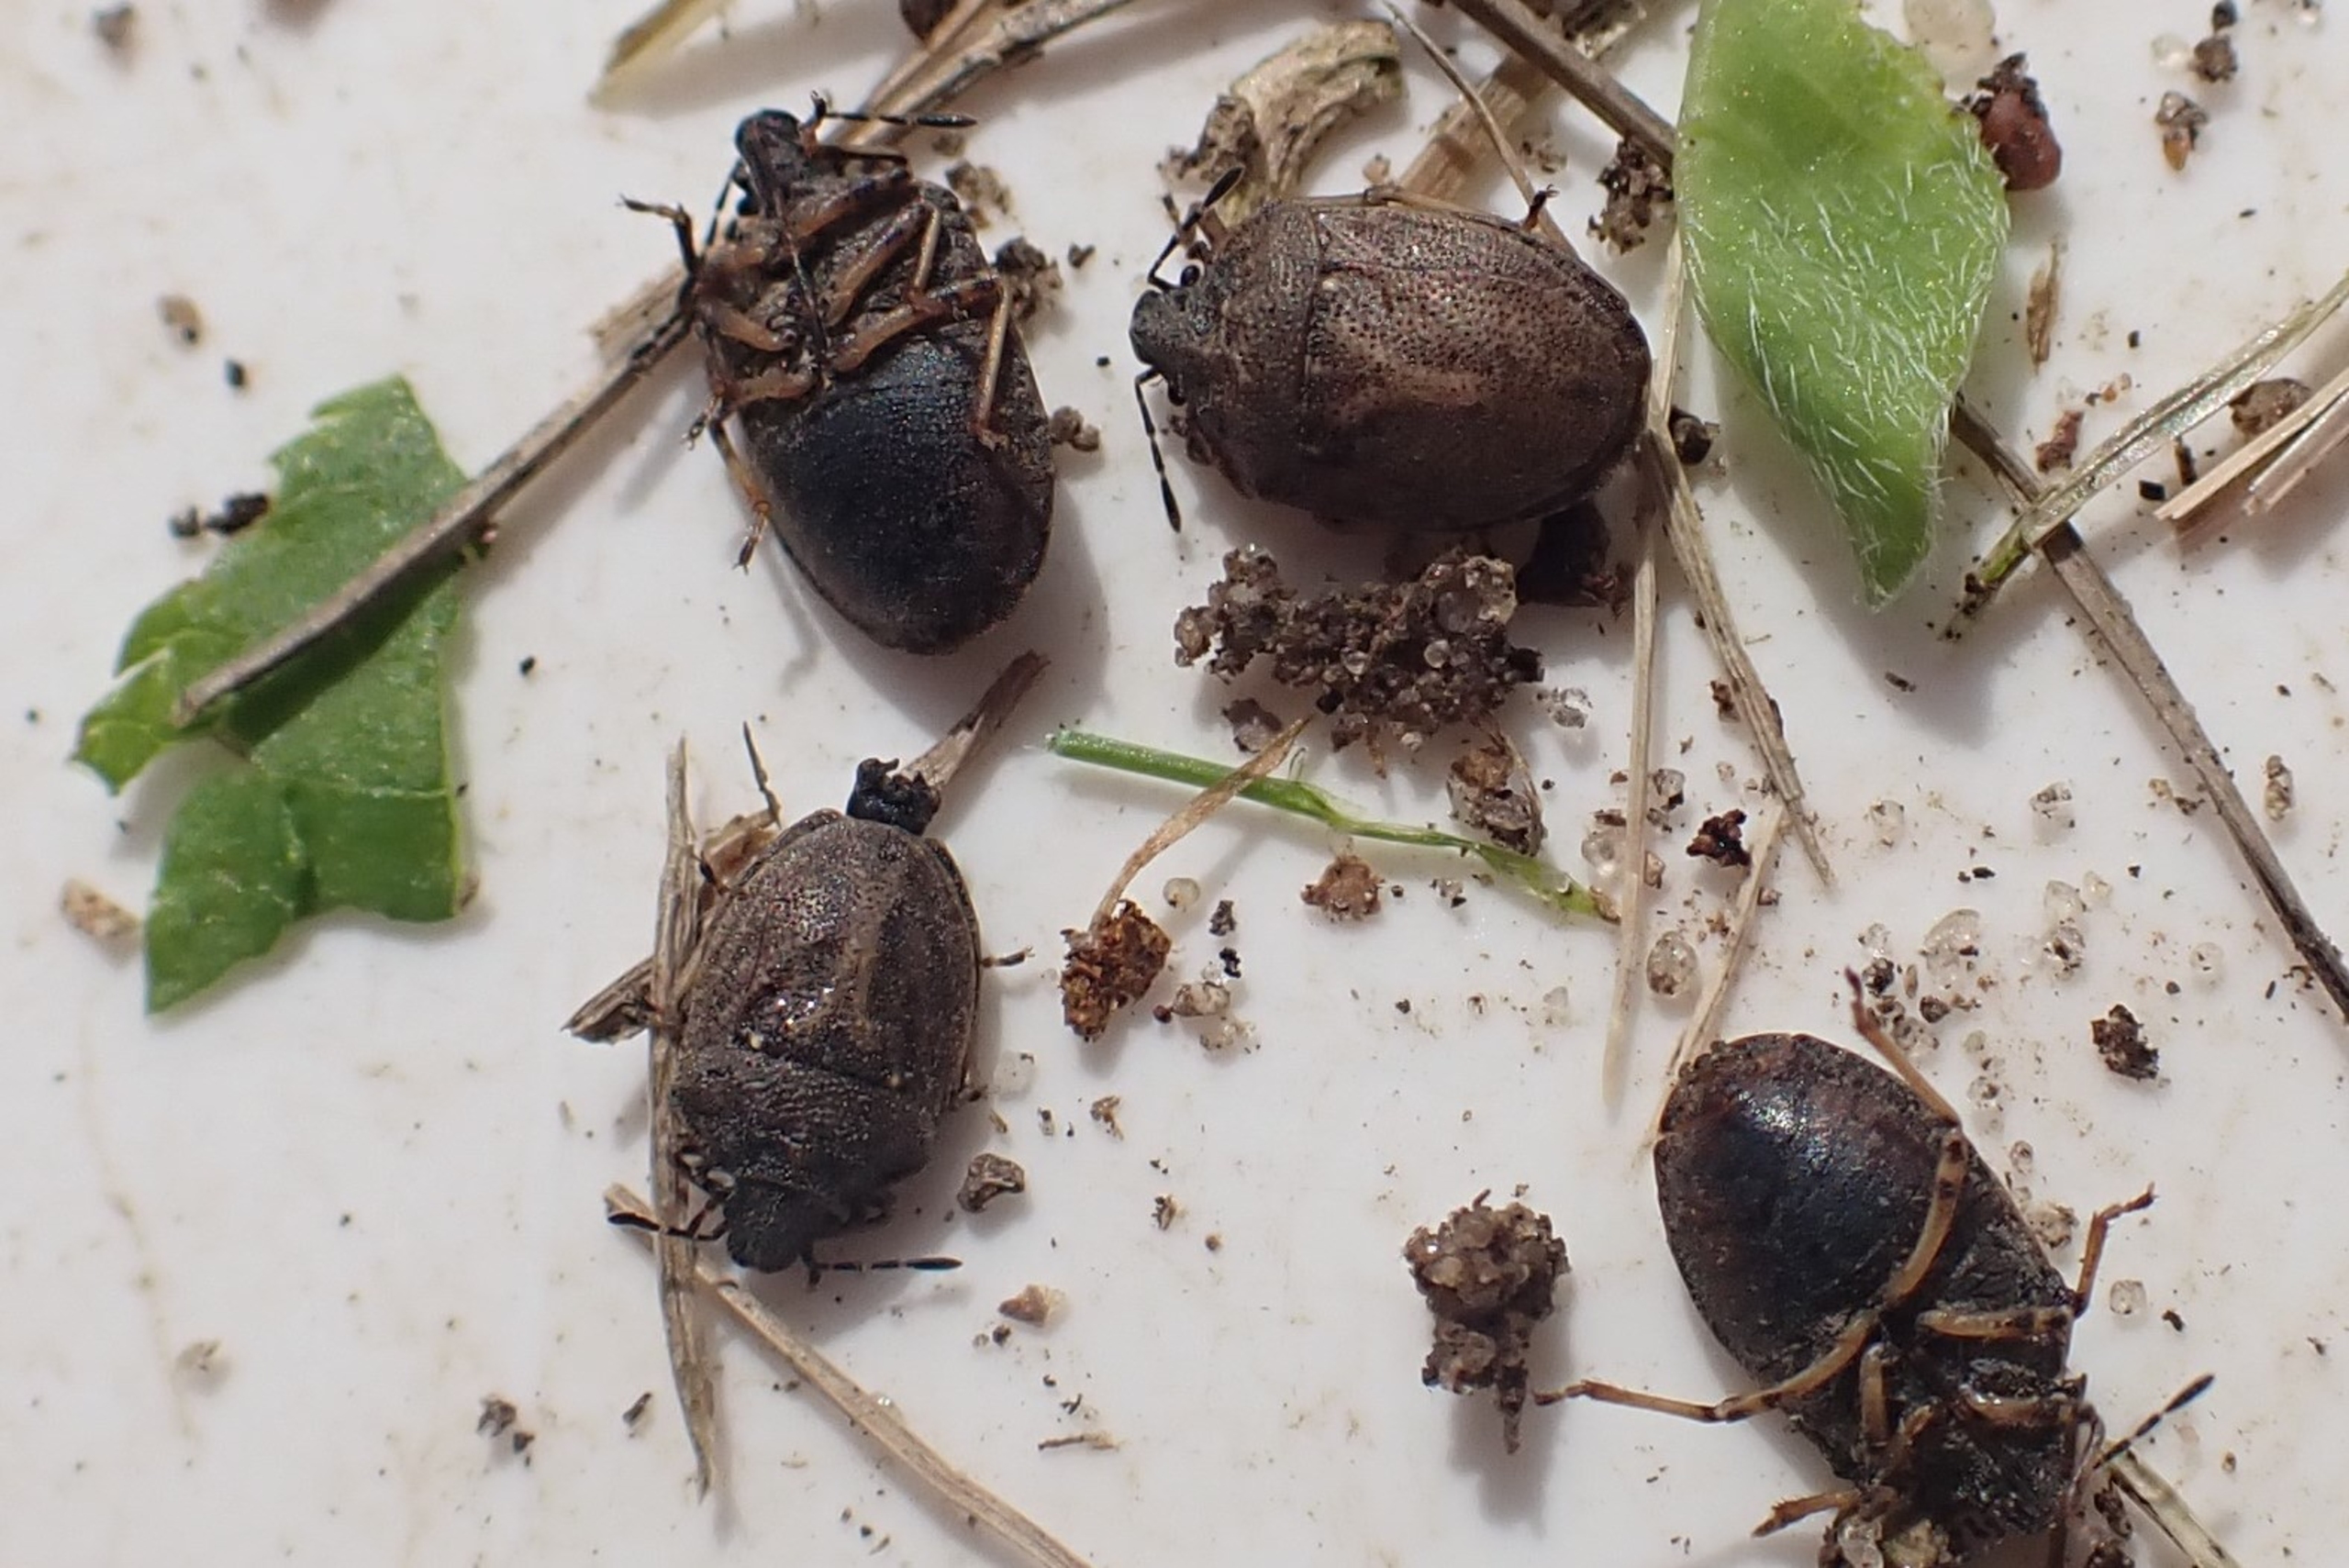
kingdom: Animalia
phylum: Arthropoda
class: Insecta
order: Hemiptera
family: Pentatomidae
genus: Podops
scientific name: Podops inunctus
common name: Krogtæge
